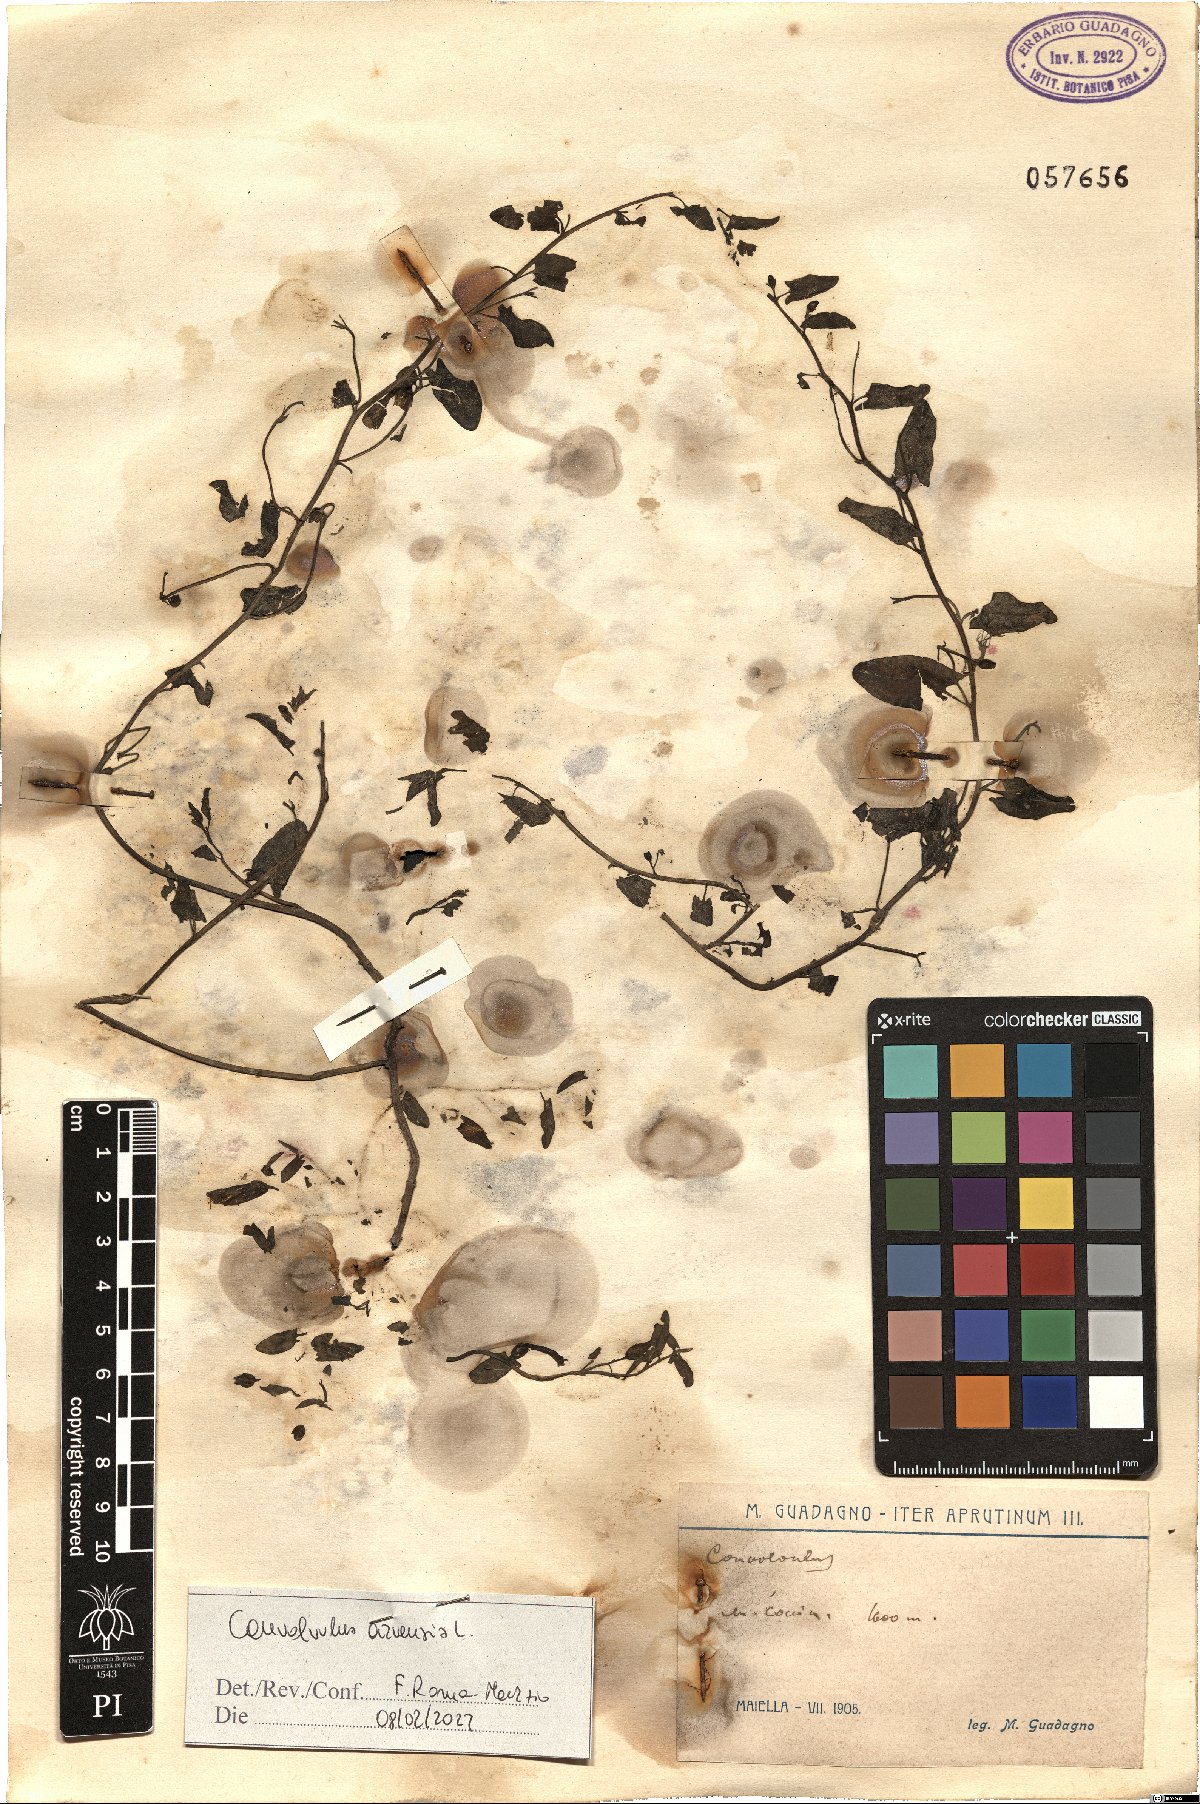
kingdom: Plantae
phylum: Tracheophyta
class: Magnoliopsida
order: Solanales
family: Convolvulaceae
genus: Convolvulus
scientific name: Convolvulus arvensis
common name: Field bindweed
